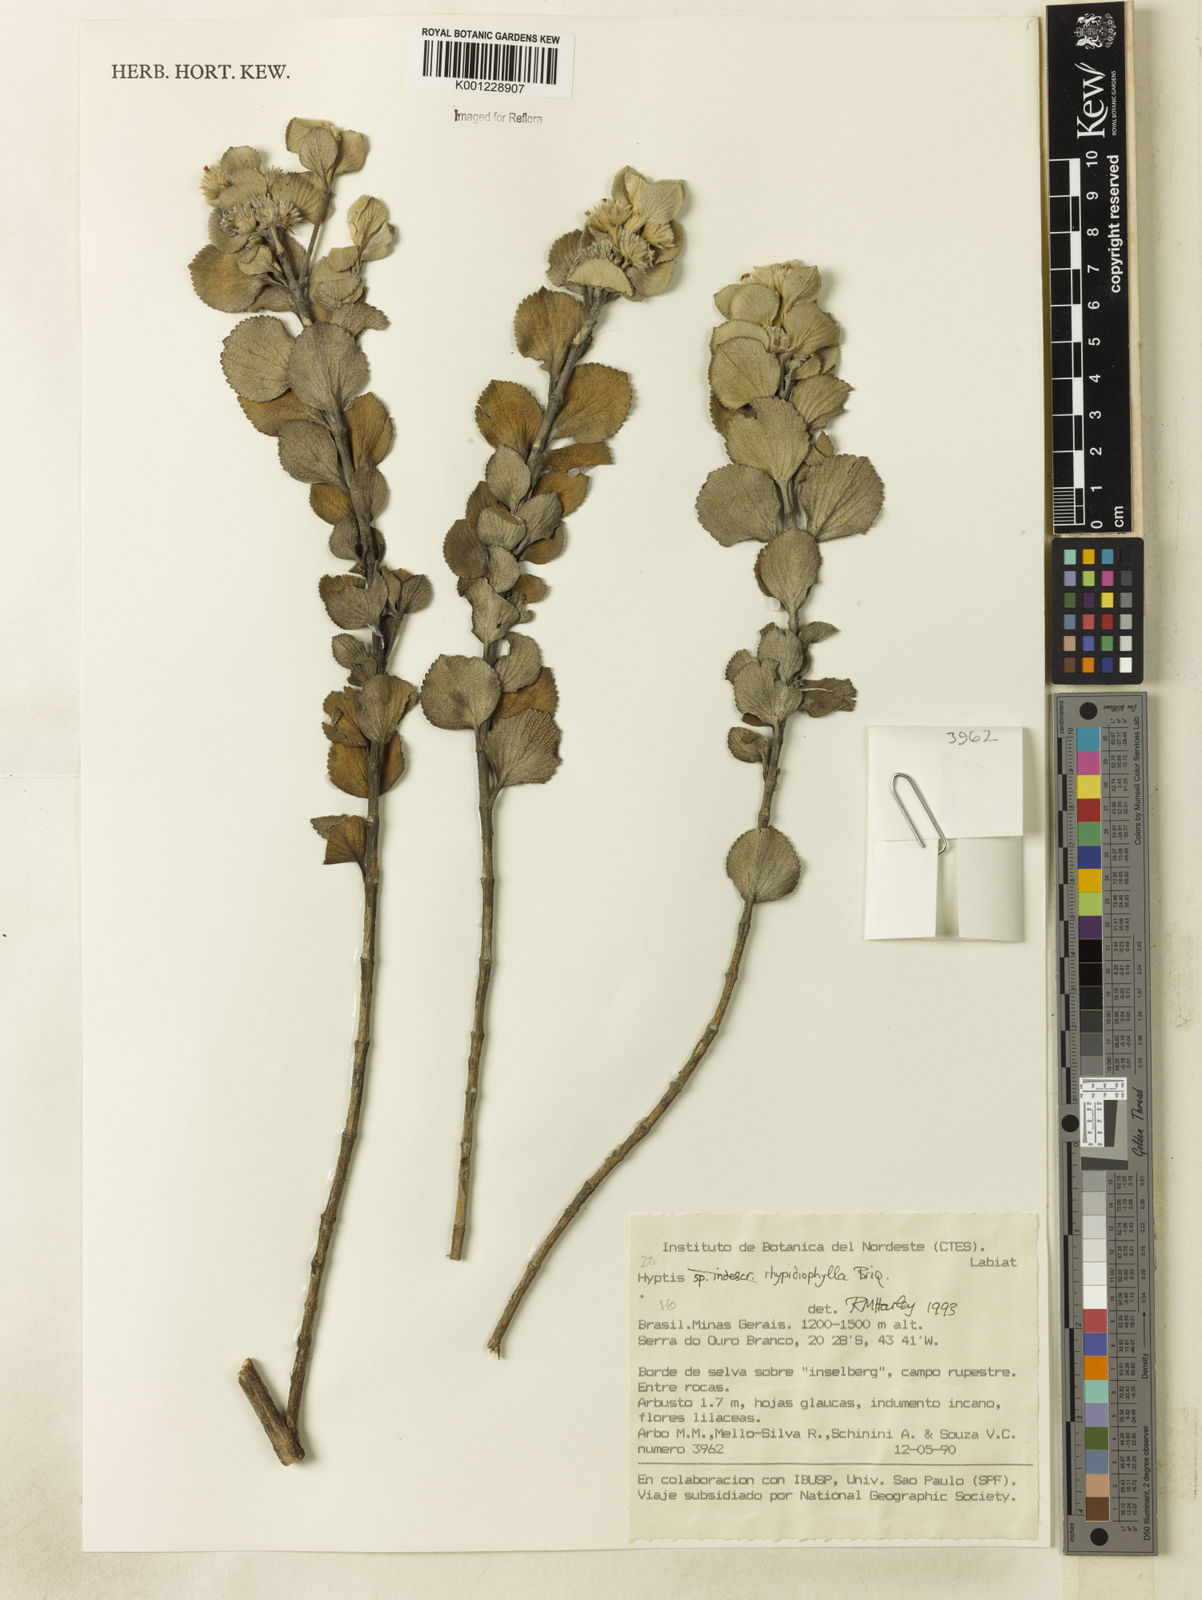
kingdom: Plantae
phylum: Tracheophyta
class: Magnoliopsida
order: Lamiales
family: Lamiaceae
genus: Hyptis
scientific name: Hyptis rhypidiophylla
